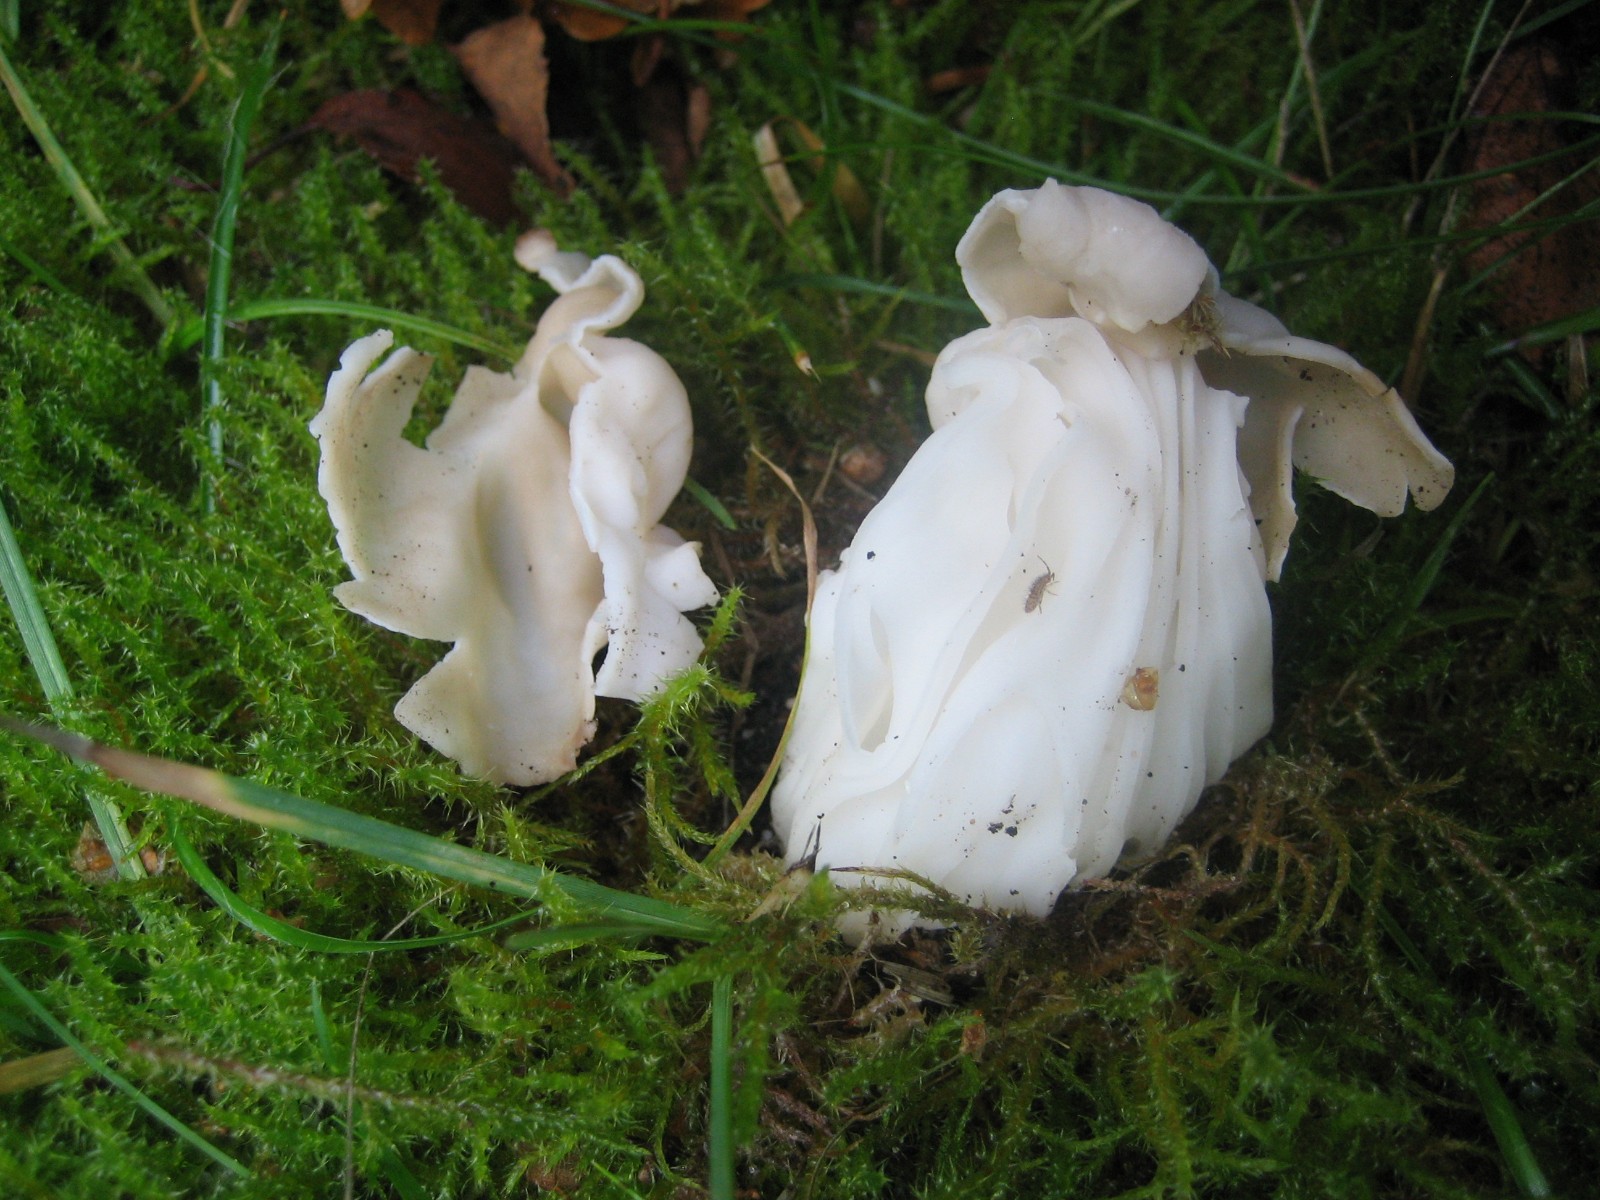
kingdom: Fungi
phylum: Ascomycota
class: Pezizomycetes
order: Pezizales
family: Helvellaceae
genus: Helvella
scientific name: Helvella crispa
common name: kruset foldhat
